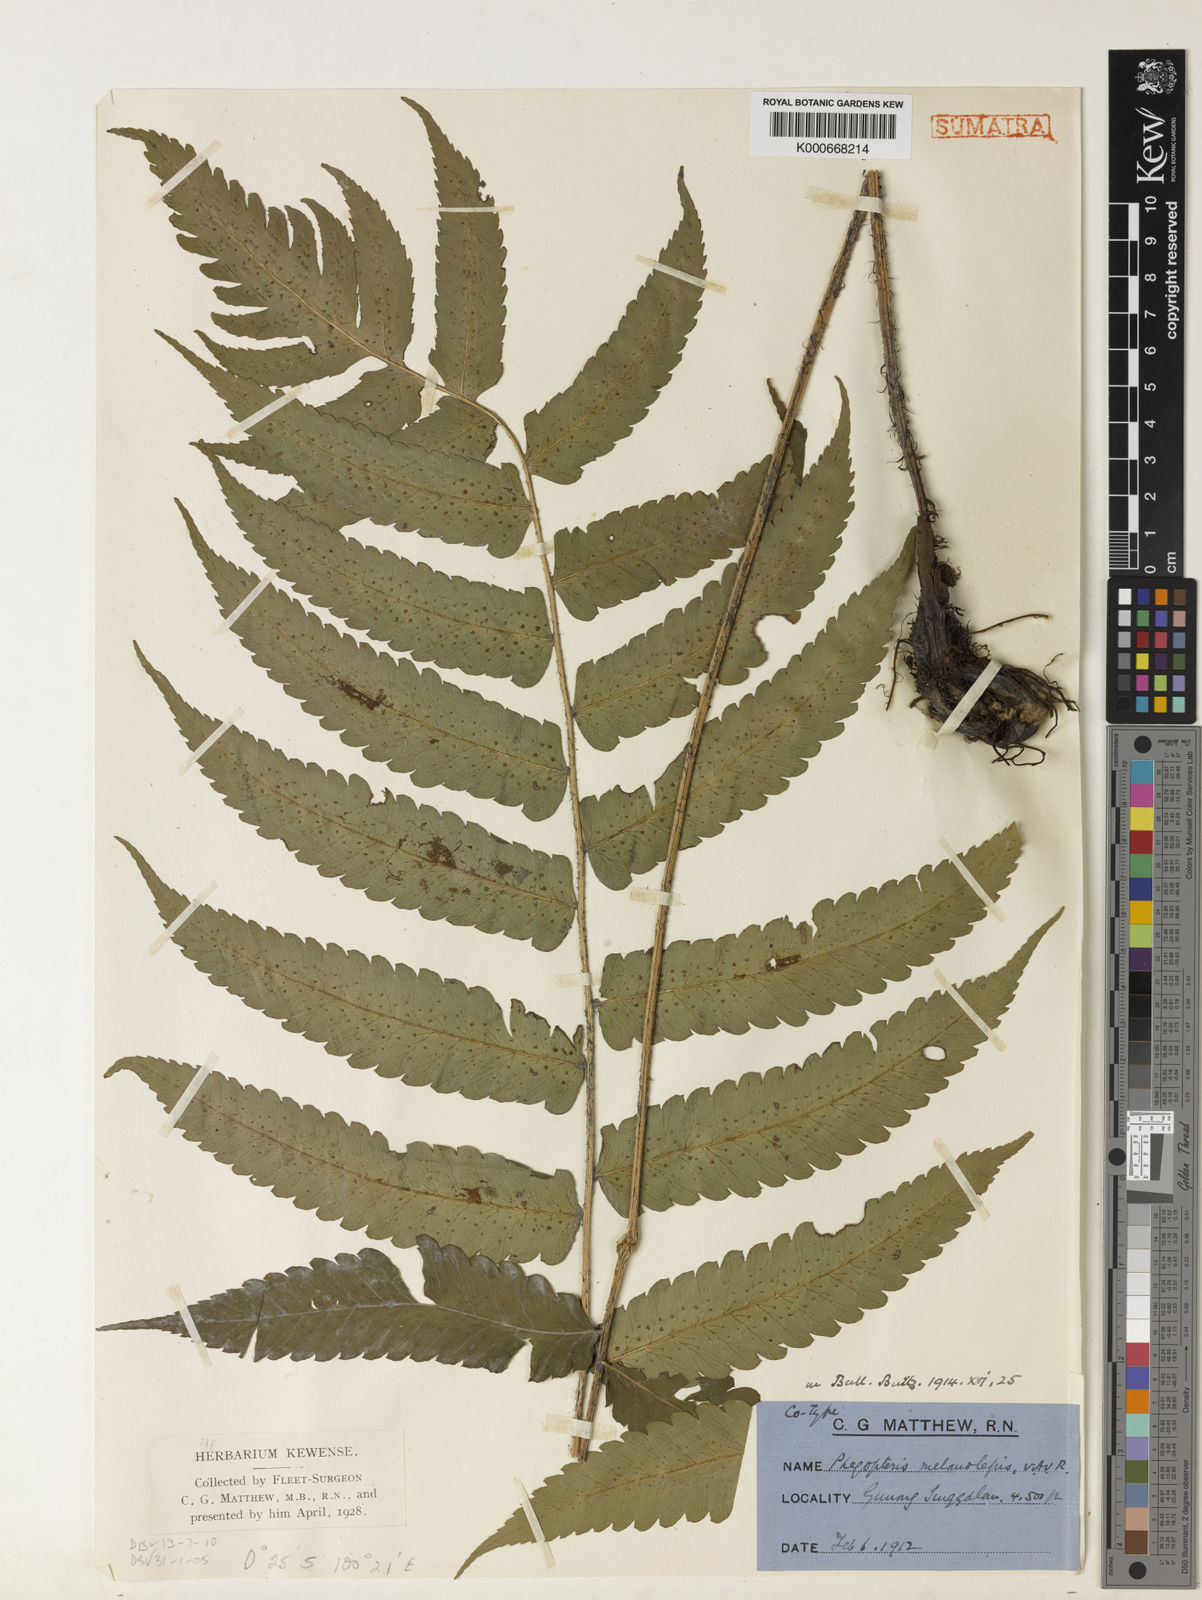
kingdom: Plantae
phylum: Tracheophyta
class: Polypodiopsida
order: Polypodiales
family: Dryopteridaceae
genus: Dryopteris
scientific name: Dryopteris purpurascens
